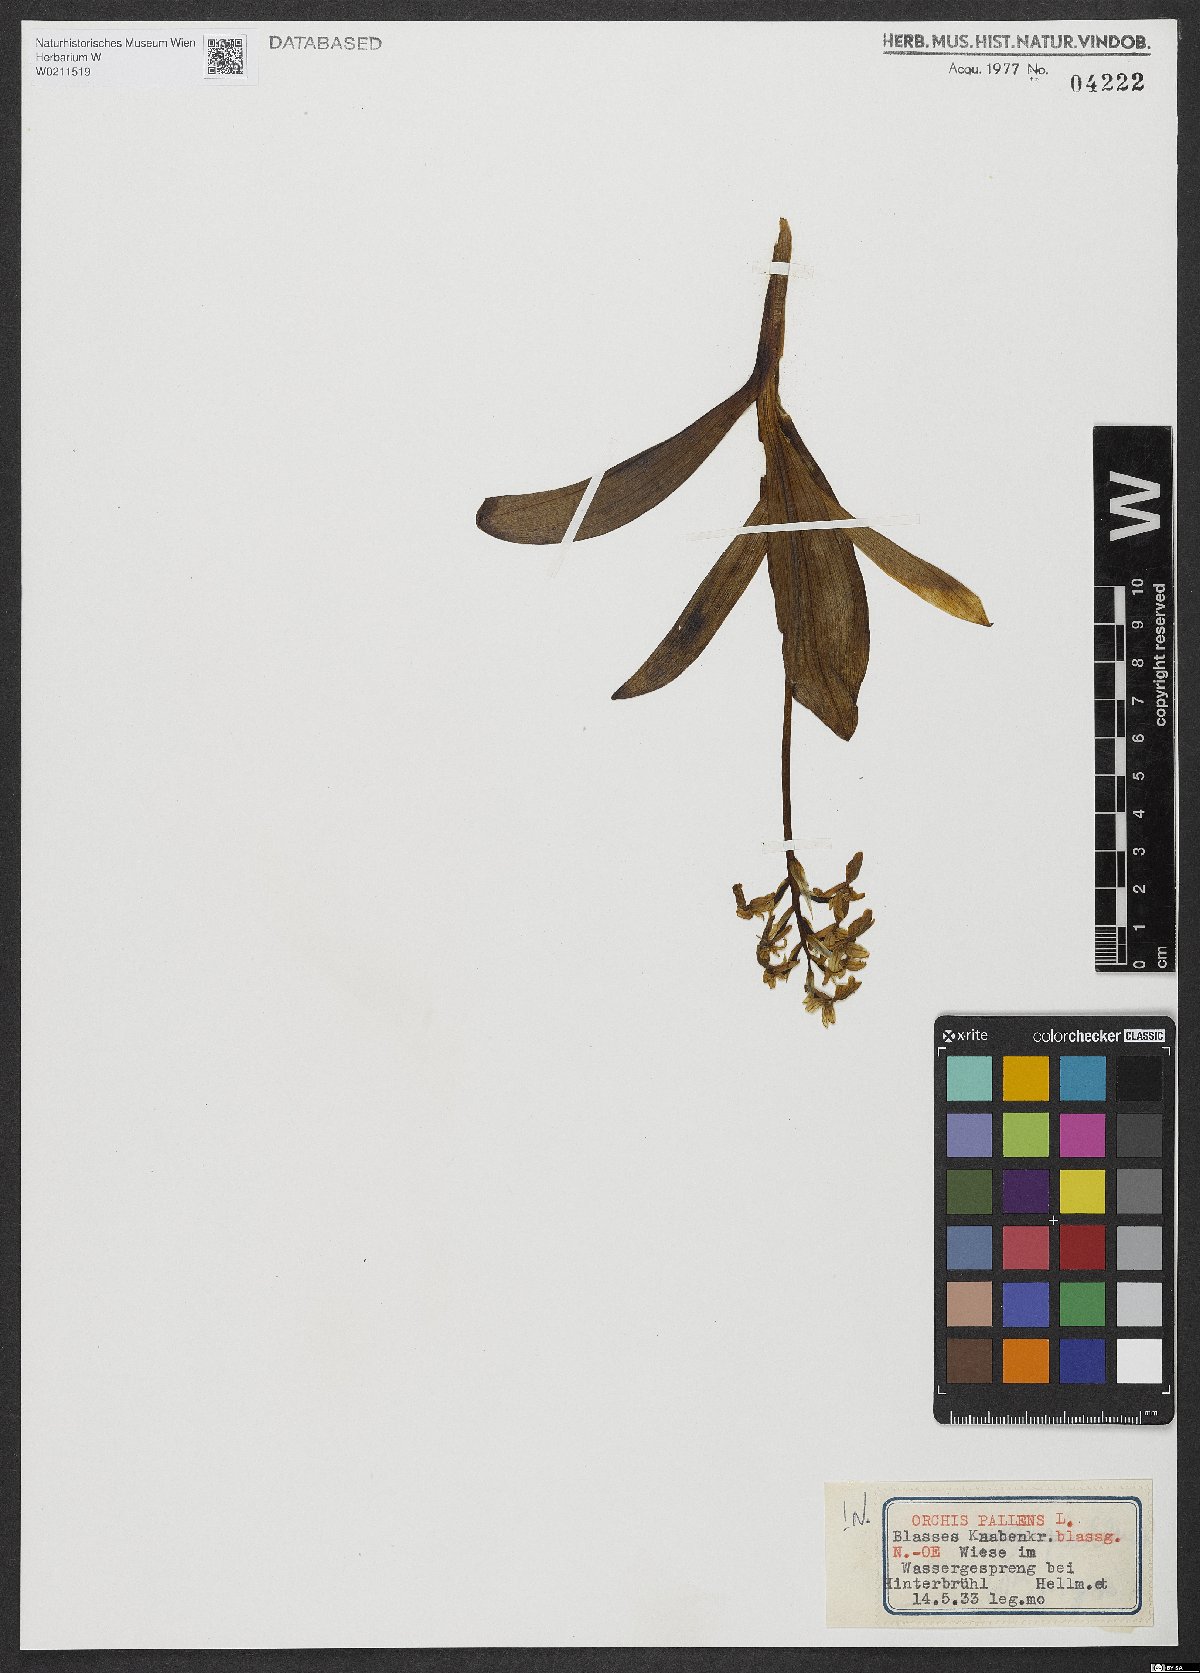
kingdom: Plantae
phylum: Tracheophyta
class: Liliopsida
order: Asparagales
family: Orchidaceae
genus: Orchis
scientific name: Orchis pallens
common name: Pale-flowered orchid
